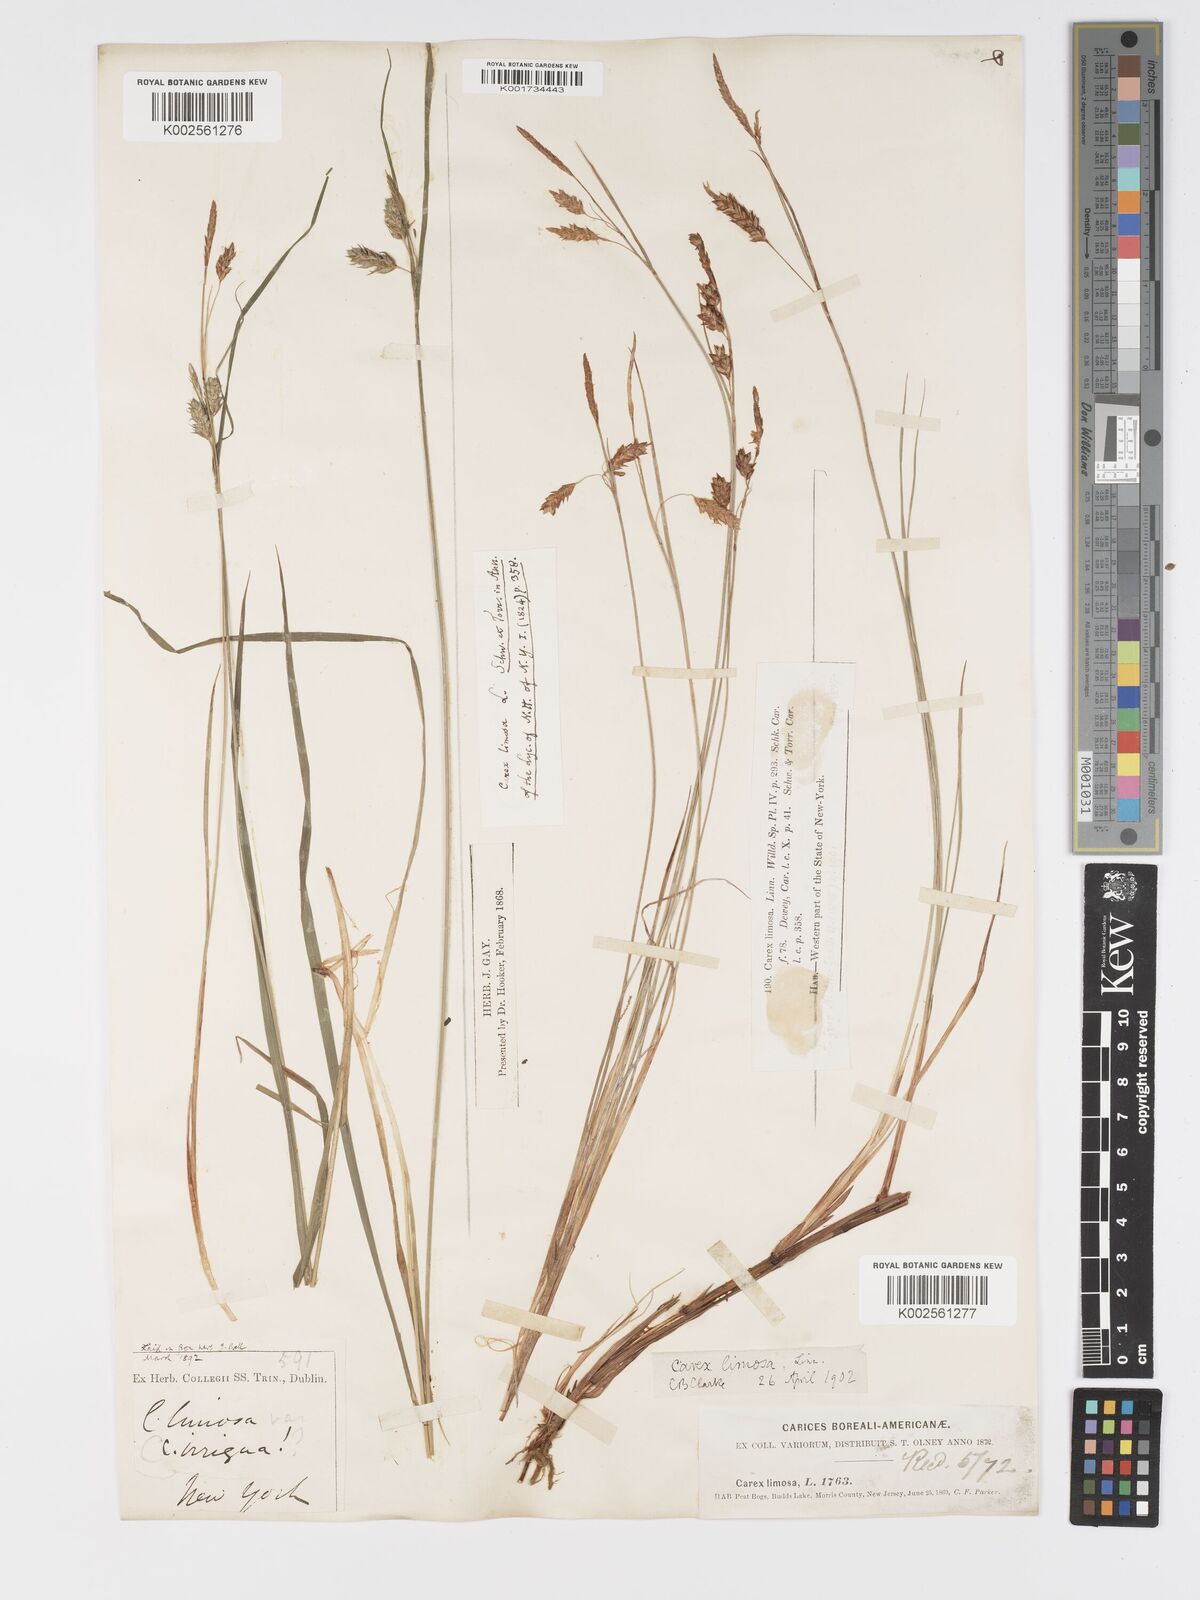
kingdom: Plantae
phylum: Tracheophyta
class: Liliopsida
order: Poales
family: Cyperaceae
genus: Carex
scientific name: Carex limosa
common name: Bog sedge
